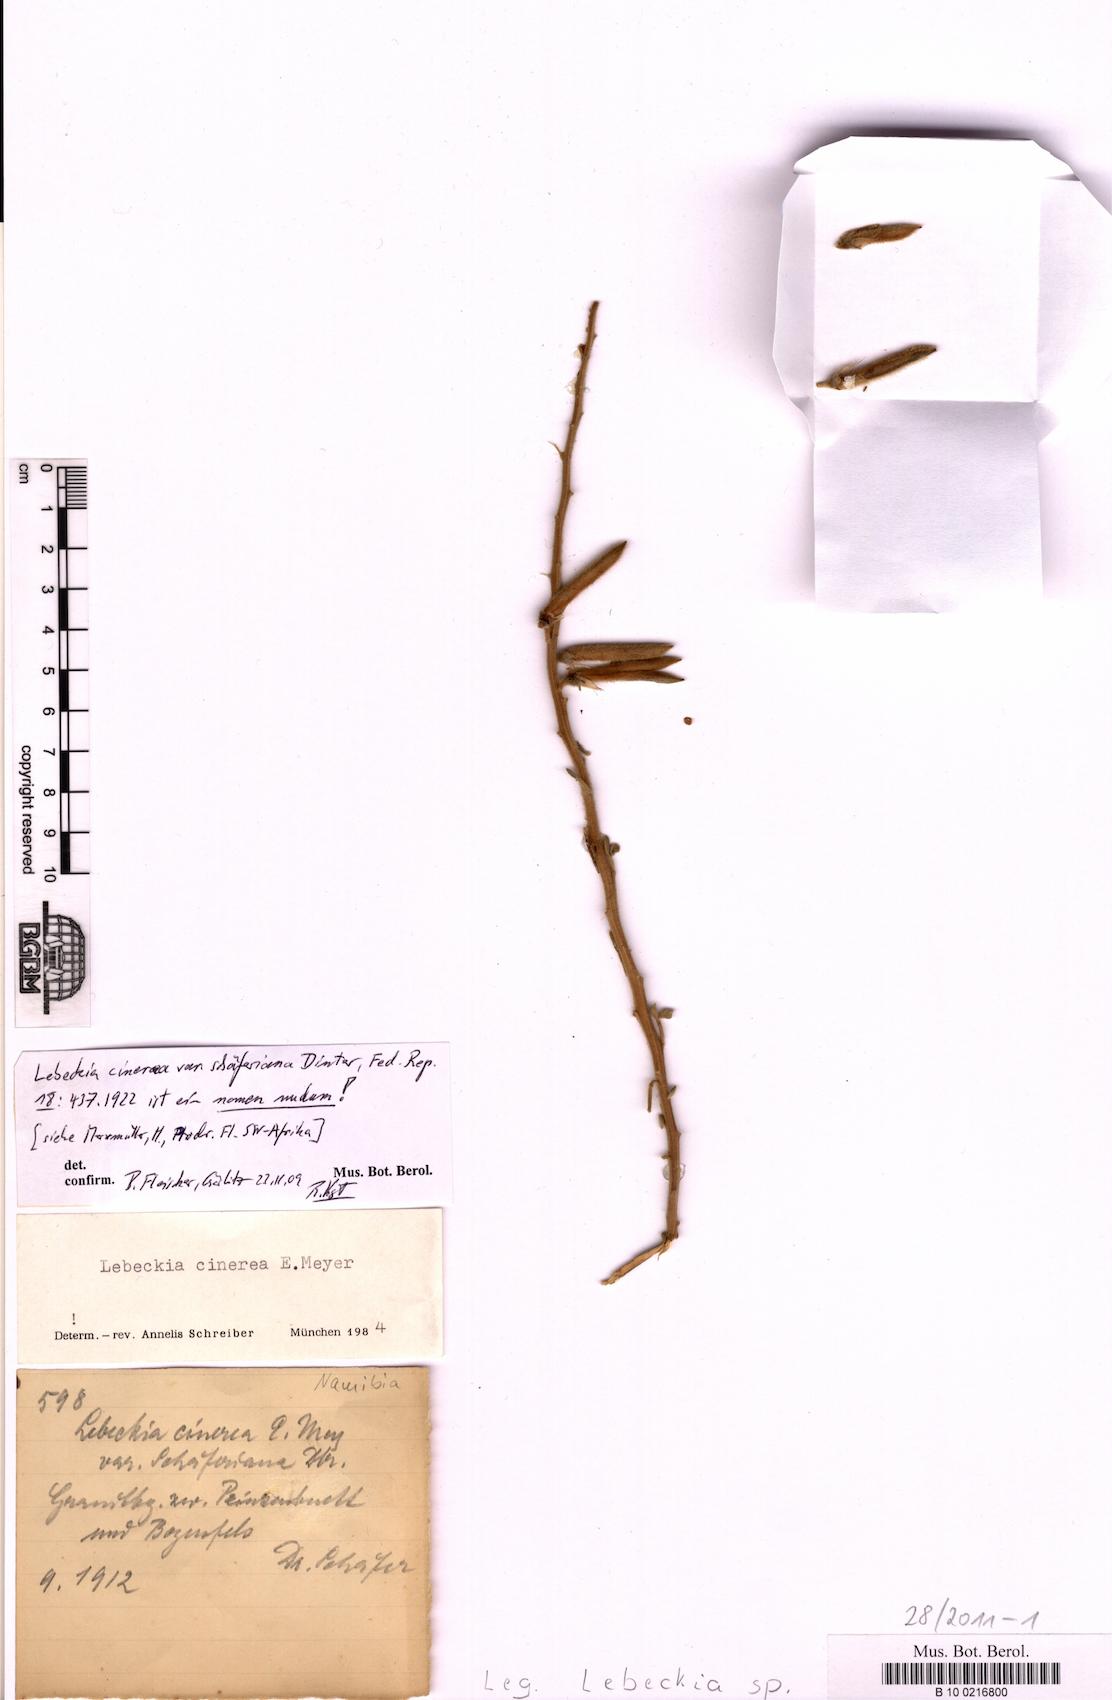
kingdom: Plantae
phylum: Tracheophyta
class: Magnoliopsida
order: Fabales
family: Fabaceae
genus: Calobota
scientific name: Calobota cinerea
